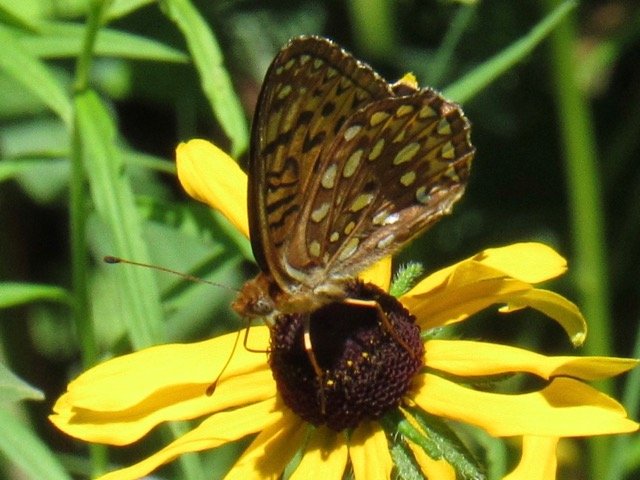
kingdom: Animalia
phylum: Arthropoda
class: Insecta
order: Lepidoptera
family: Nymphalidae
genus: Speyeria
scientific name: Speyeria atlantis
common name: Atlantis Fritillary
